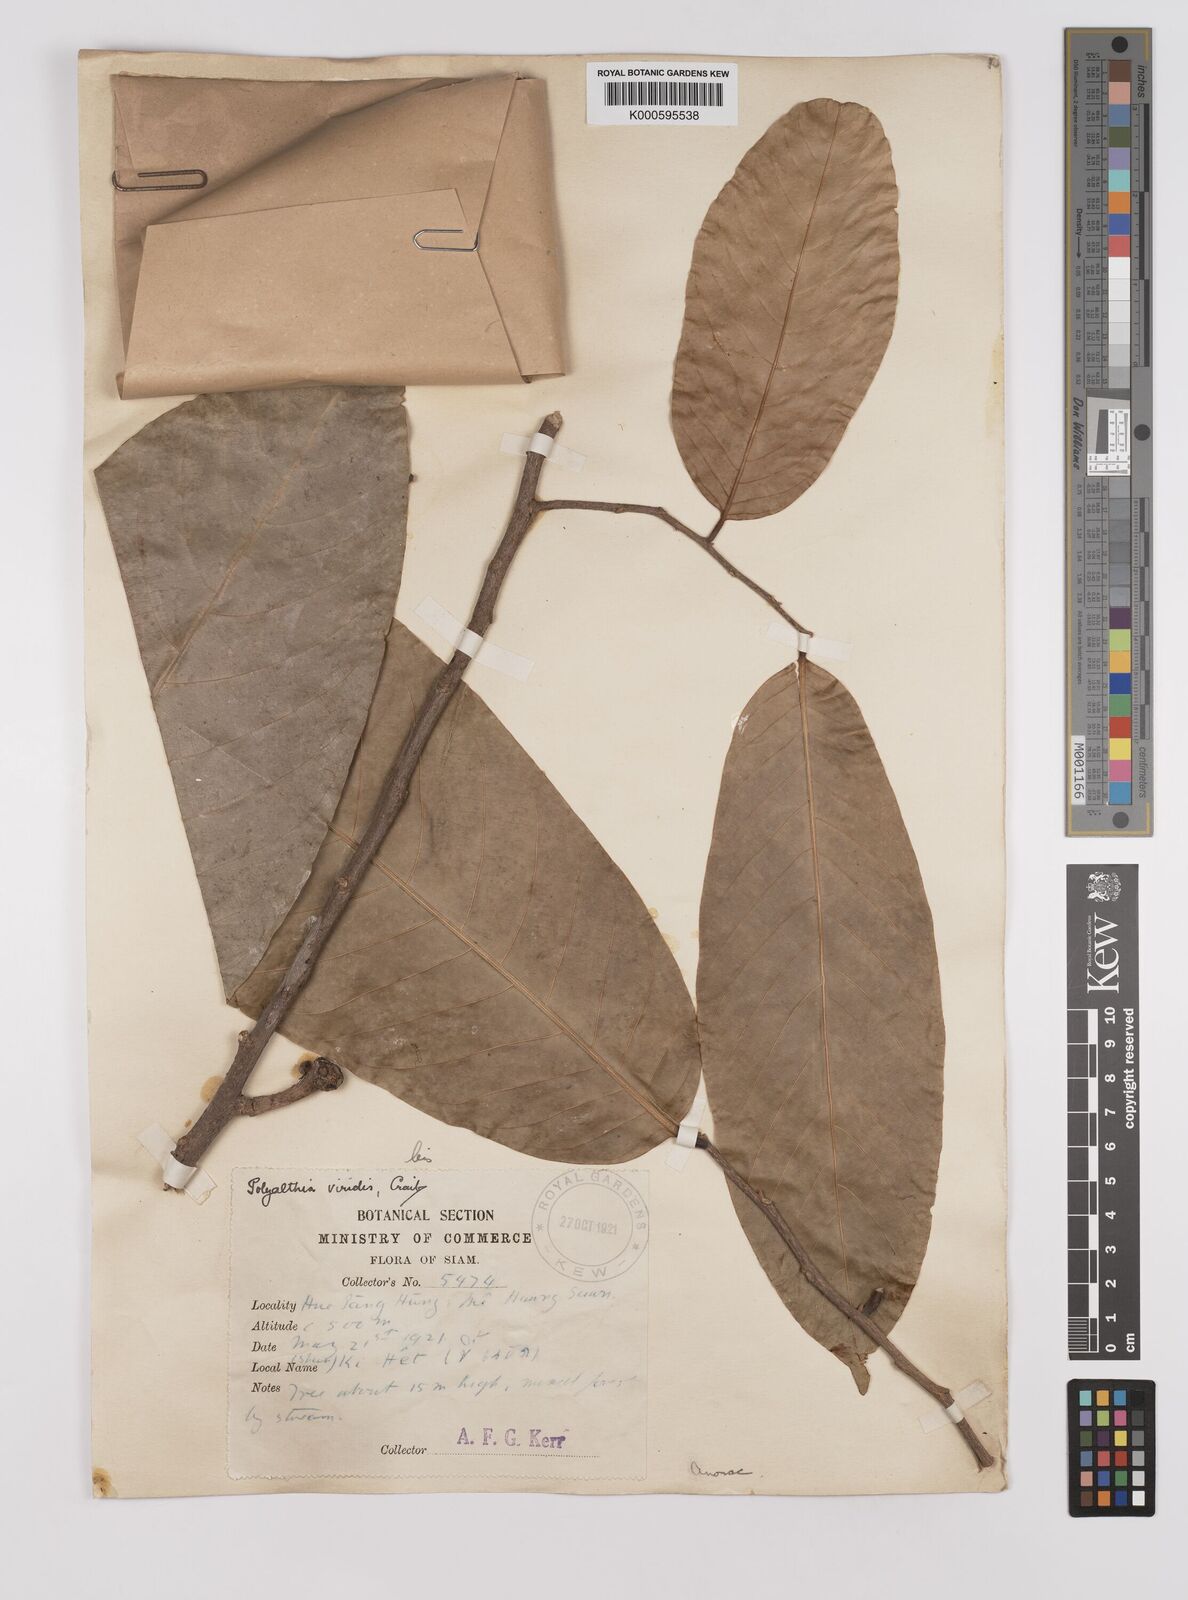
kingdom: Plantae
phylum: Tracheophyta
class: Magnoliopsida
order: Magnoliales
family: Annonaceae
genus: Polyalthia
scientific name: Polyalthia viridis
